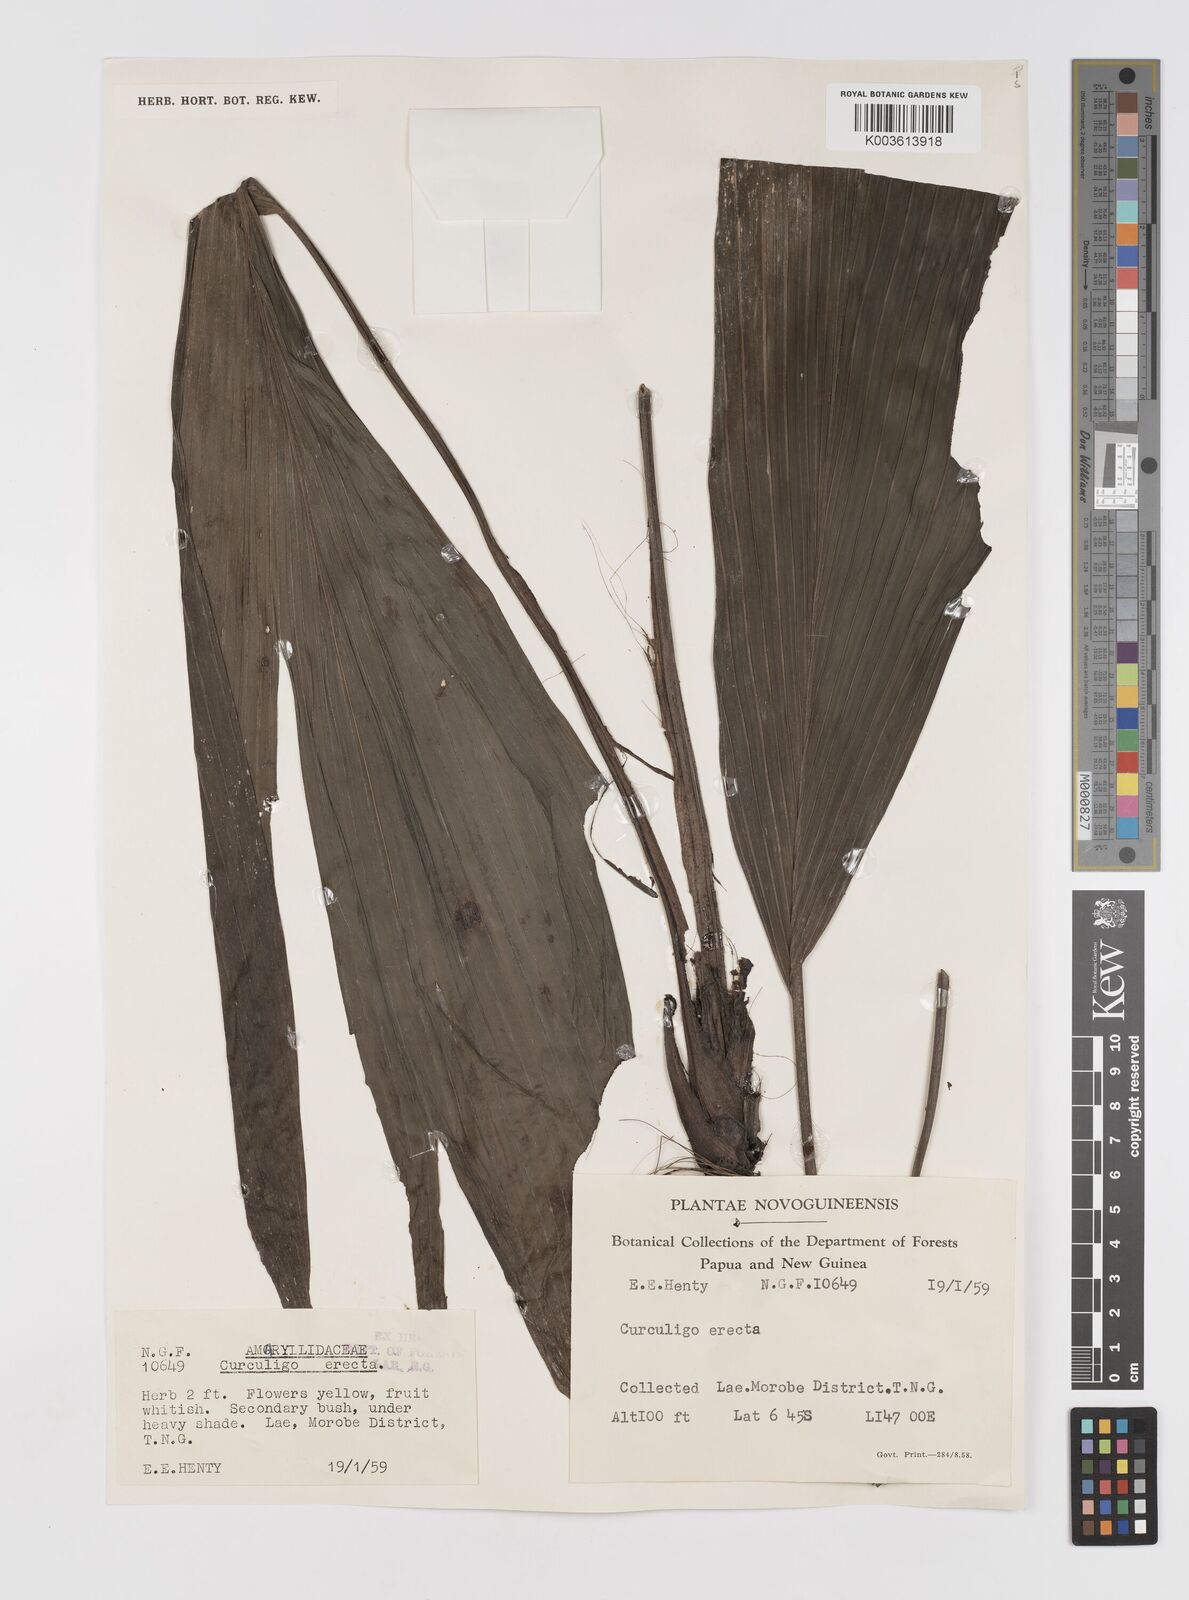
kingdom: Plantae
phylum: Tracheophyta
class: Liliopsida
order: Asparagales
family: Hypoxidaceae
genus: Curculigo
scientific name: Curculigo
